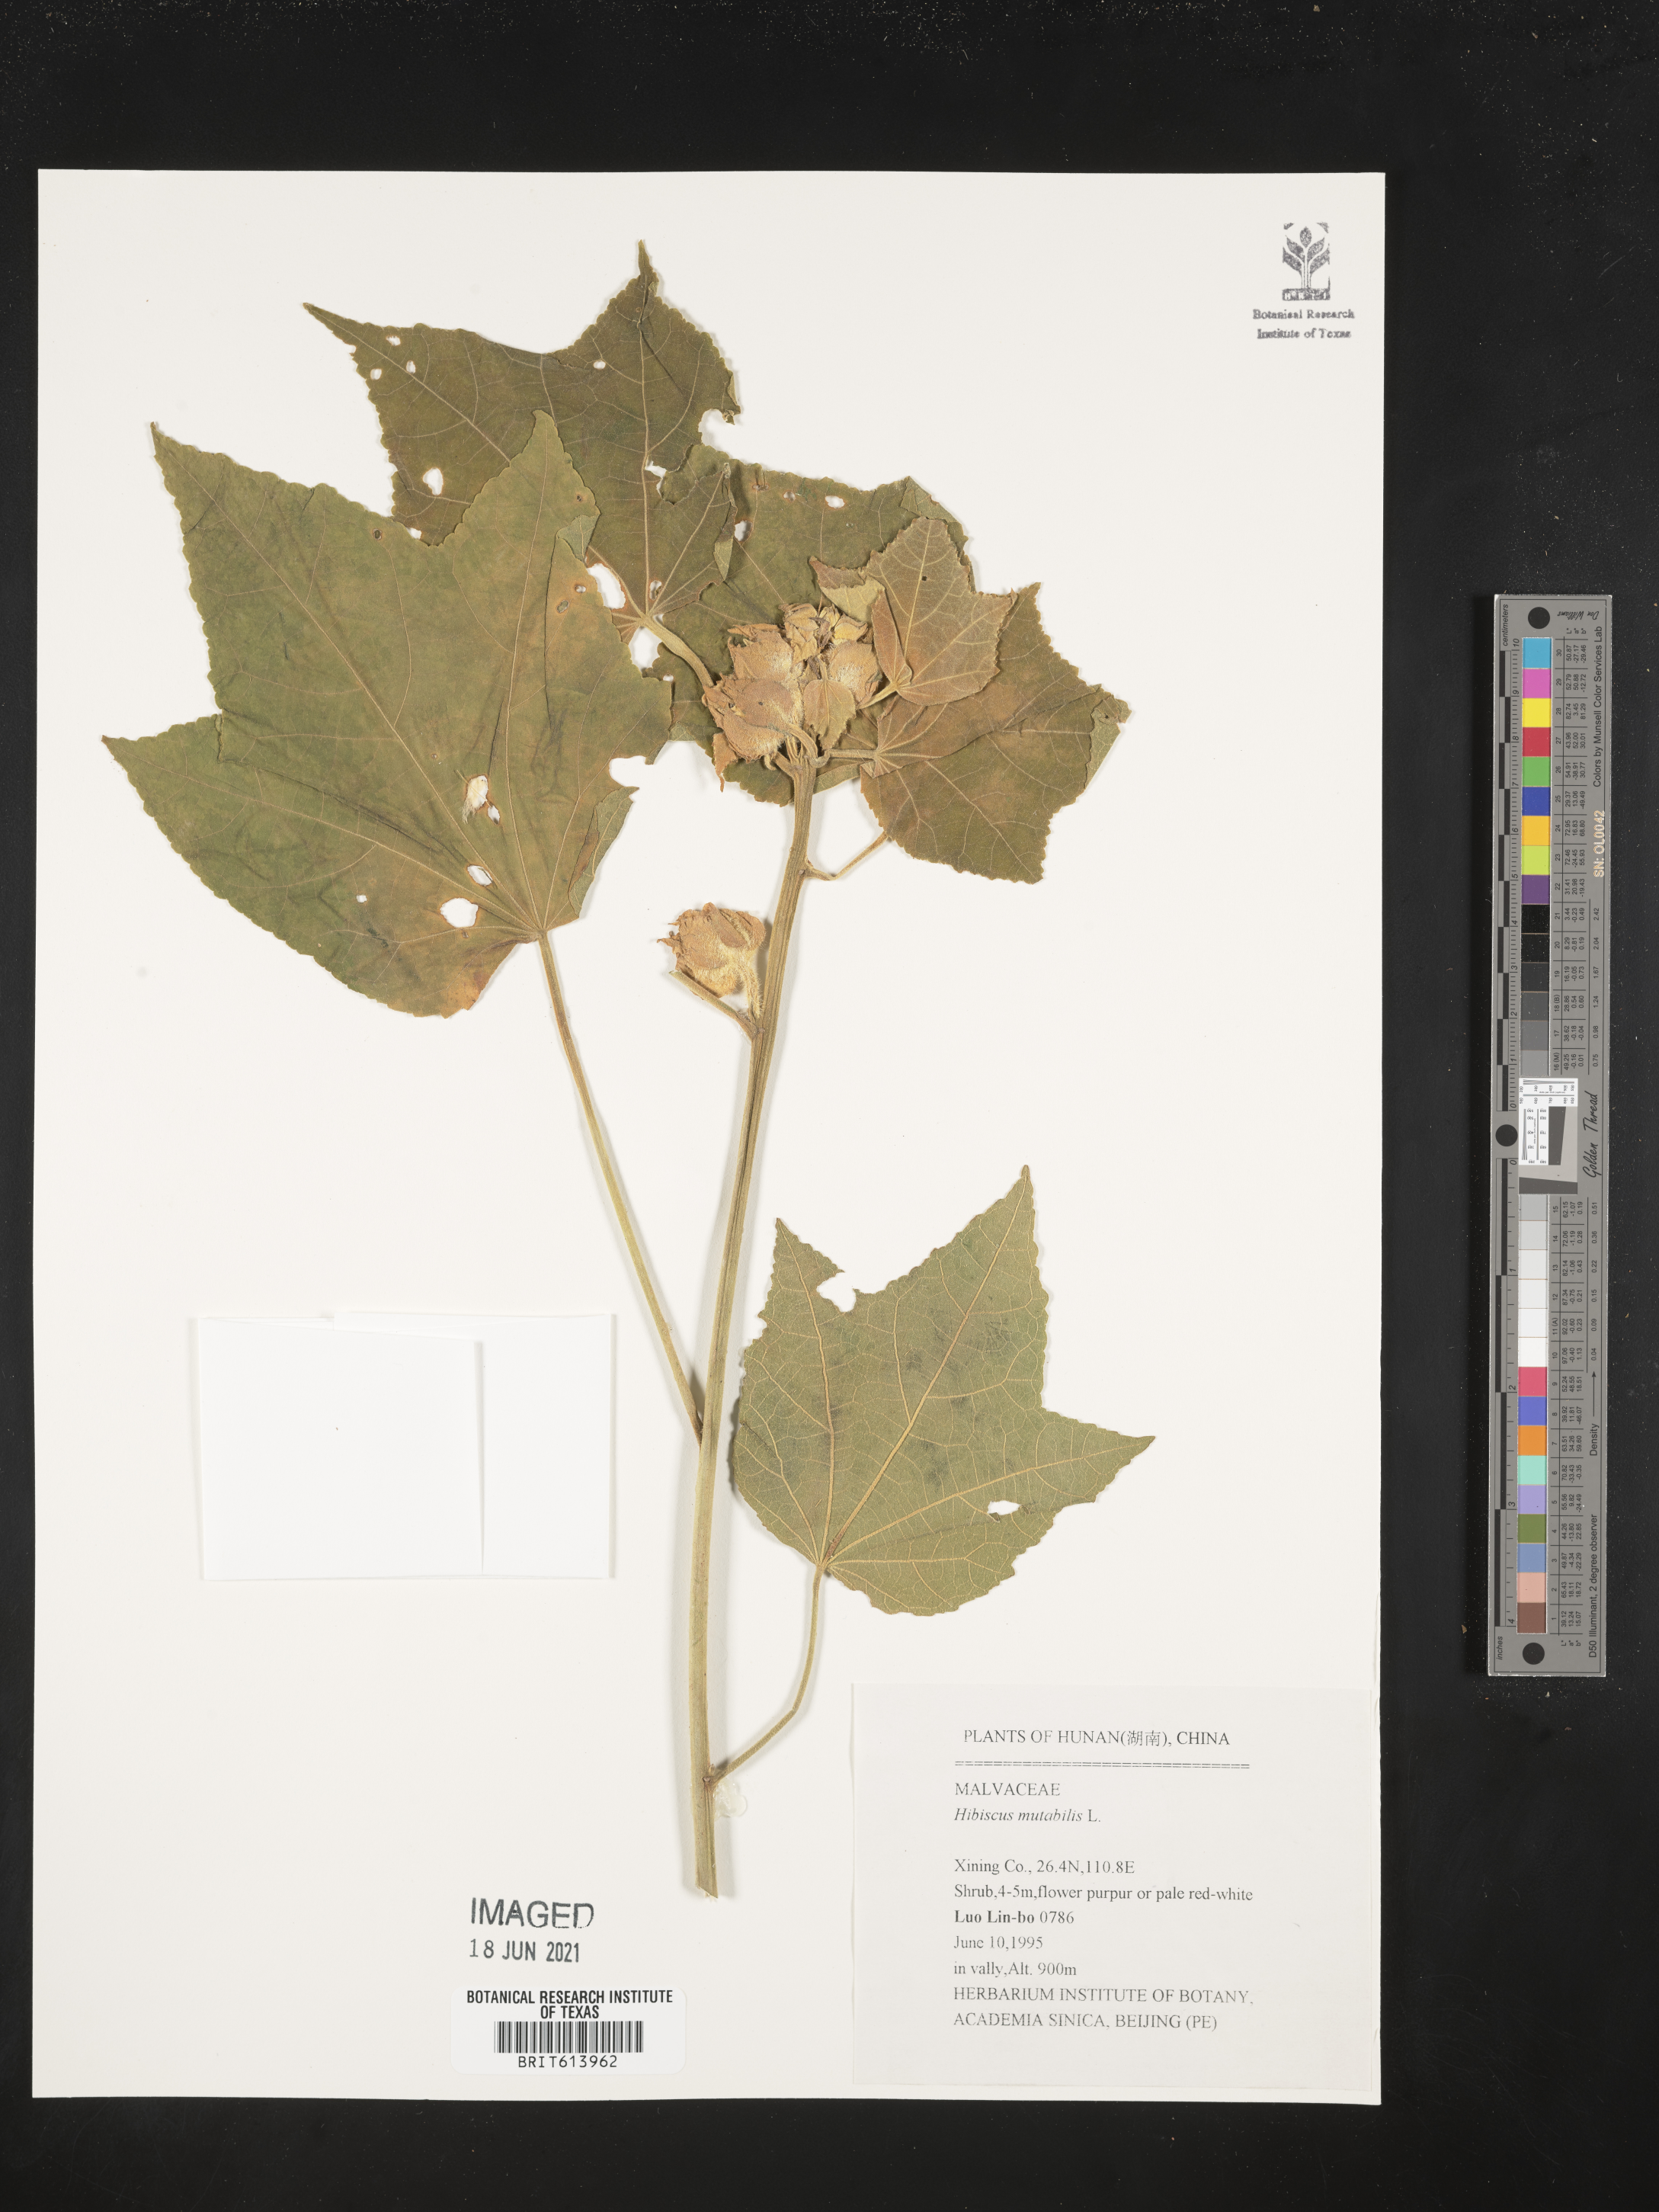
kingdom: Plantae
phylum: Tracheophyta
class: Magnoliopsida
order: Malvales
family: Malvaceae
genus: Hibiscus
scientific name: Hibiscus mutabilis
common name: Dixie rosemallow
